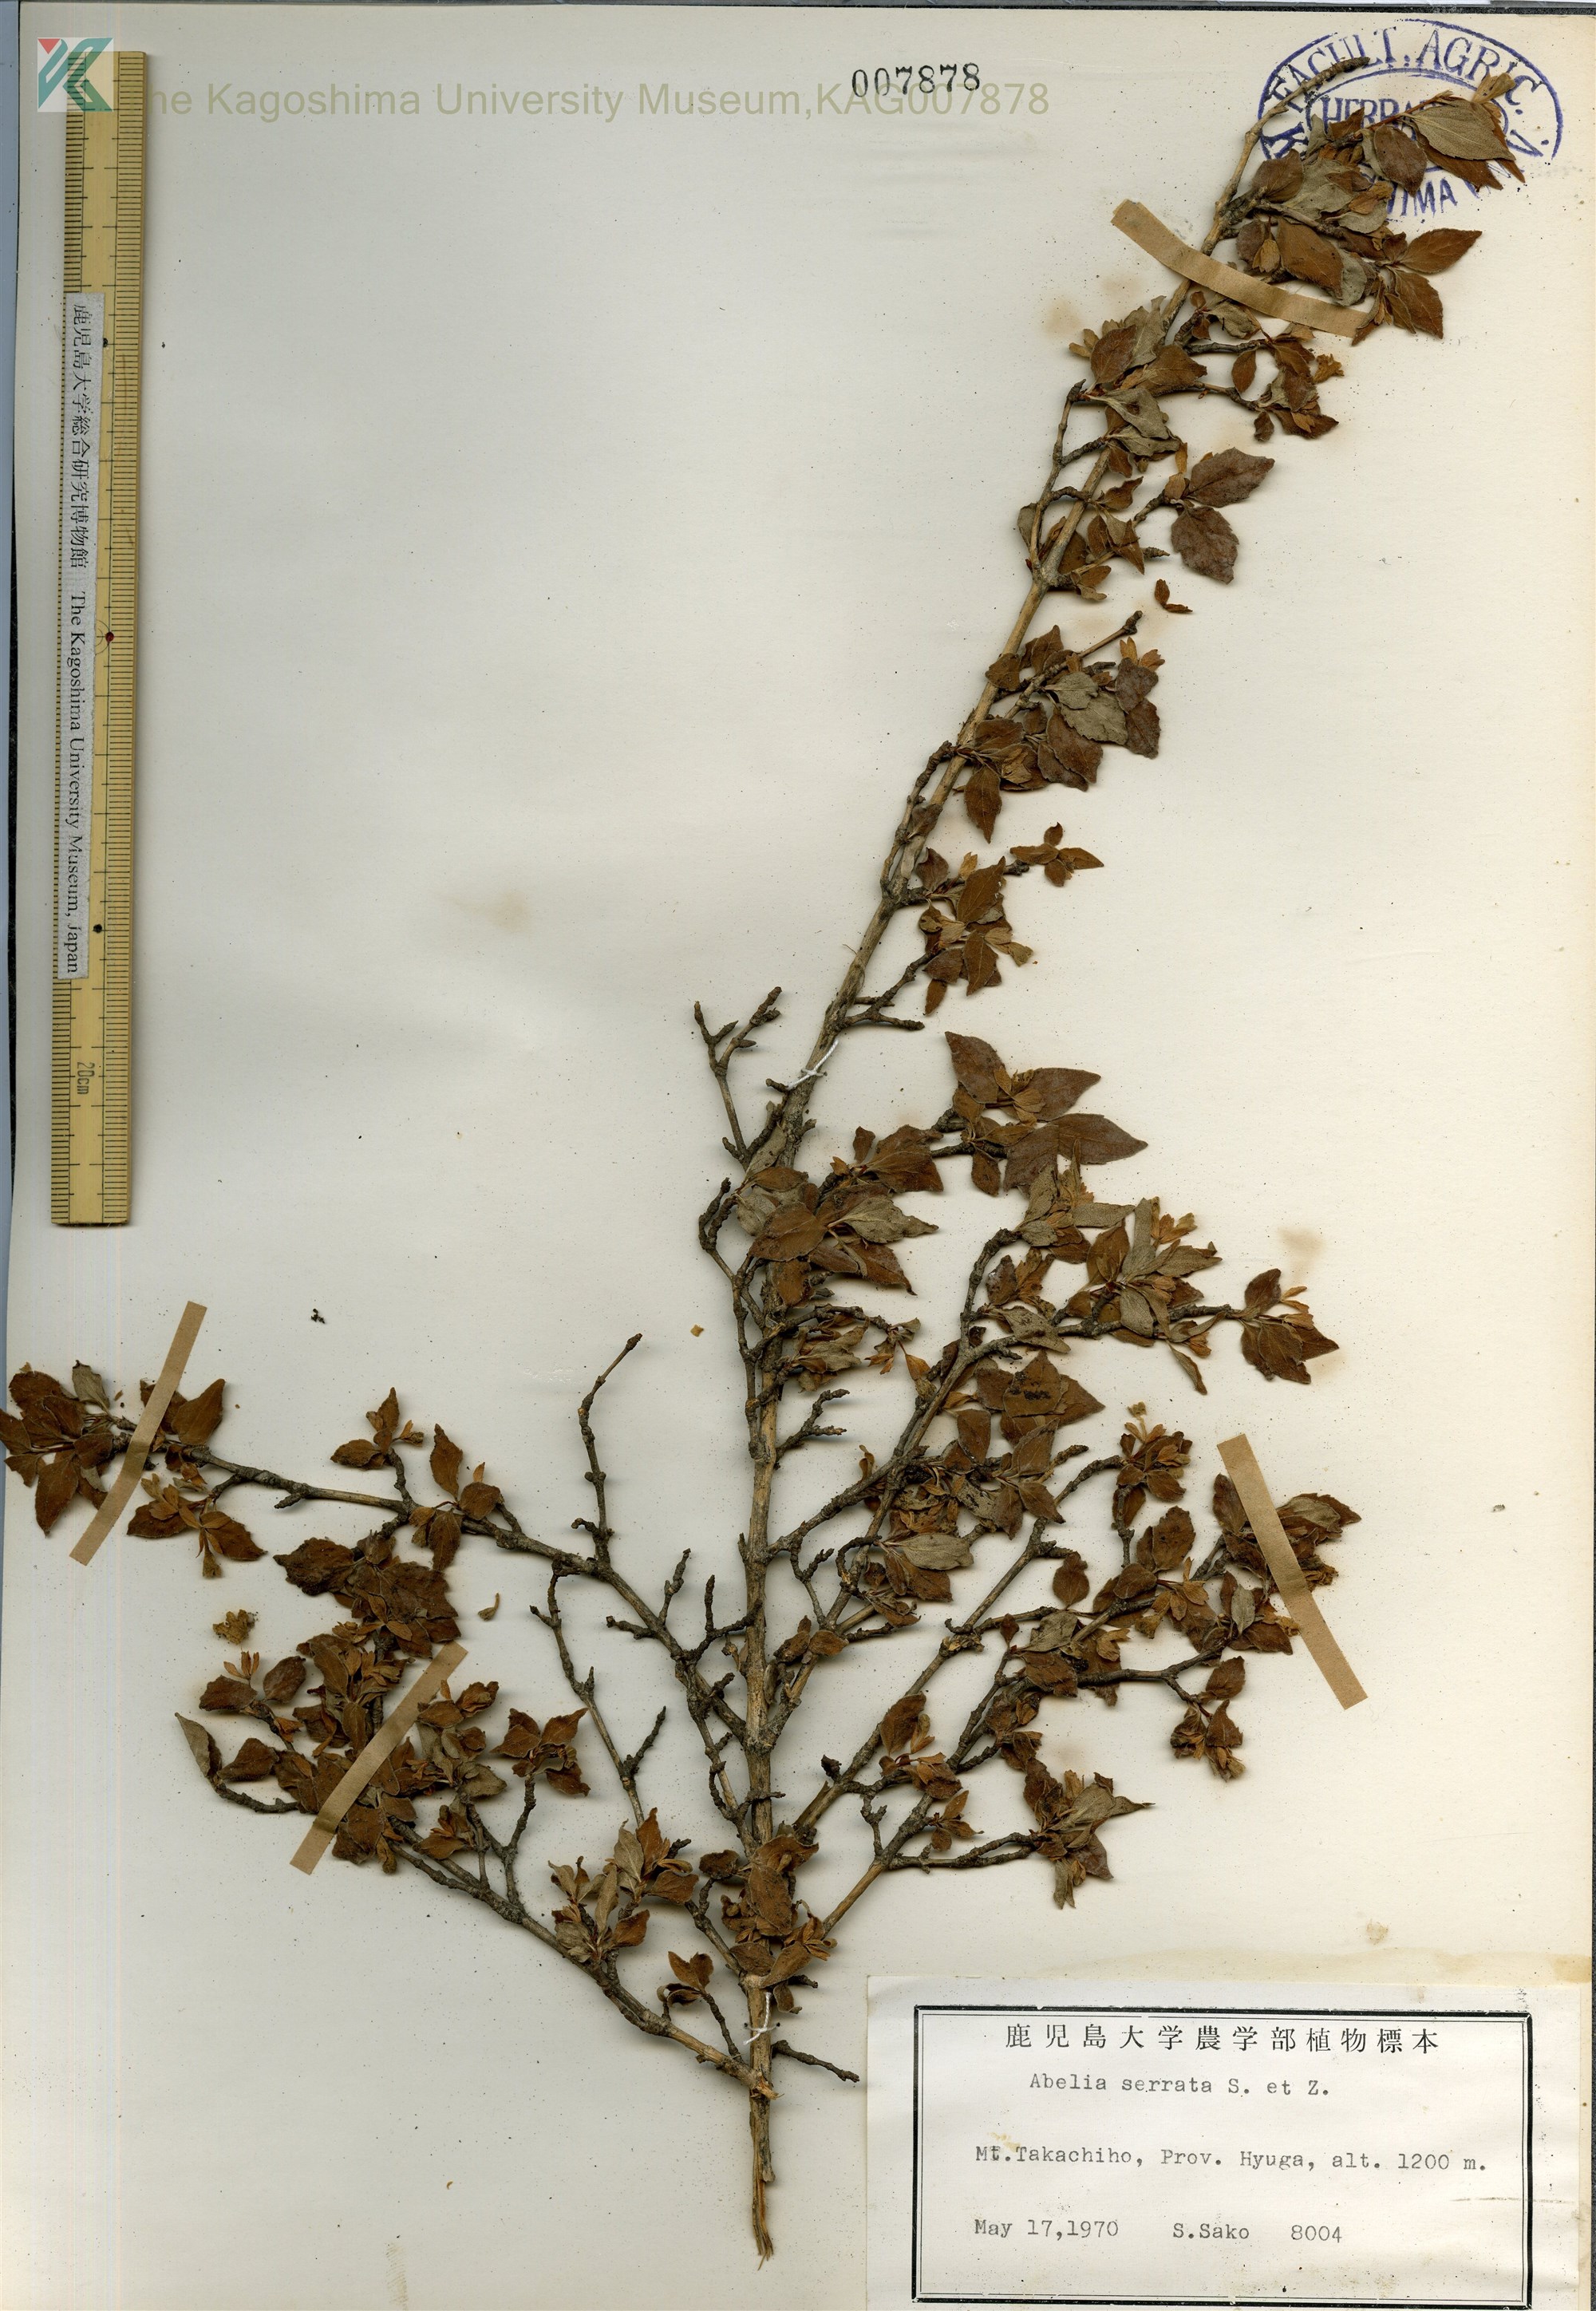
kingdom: Plantae
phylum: Tracheophyta
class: Magnoliopsida
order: Dipsacales
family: Caprifoliaceae
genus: Diabelia
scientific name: Diabelia serrata
